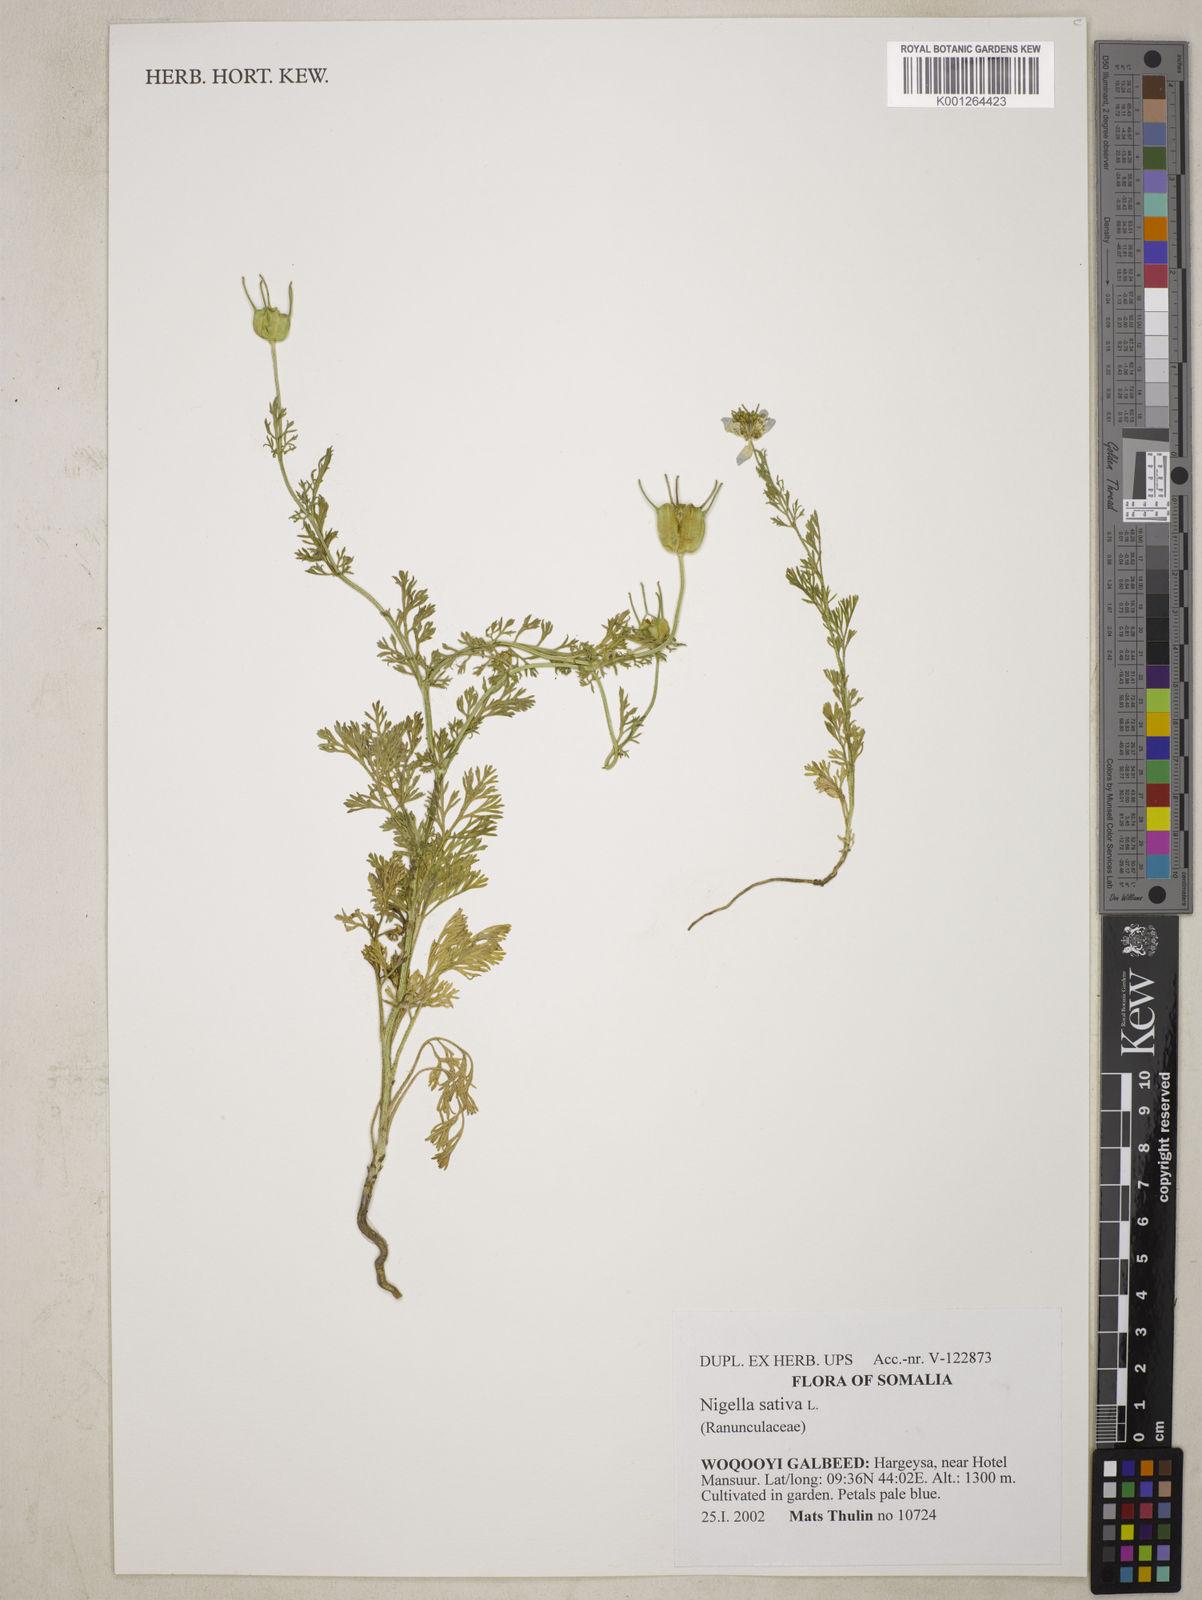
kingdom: Plantae
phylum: Tracheophyta
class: Magnoliopsida
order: Ranunculales
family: Ranunculaceae
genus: Nigella
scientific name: Nigella sativa
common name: Black-cumin
